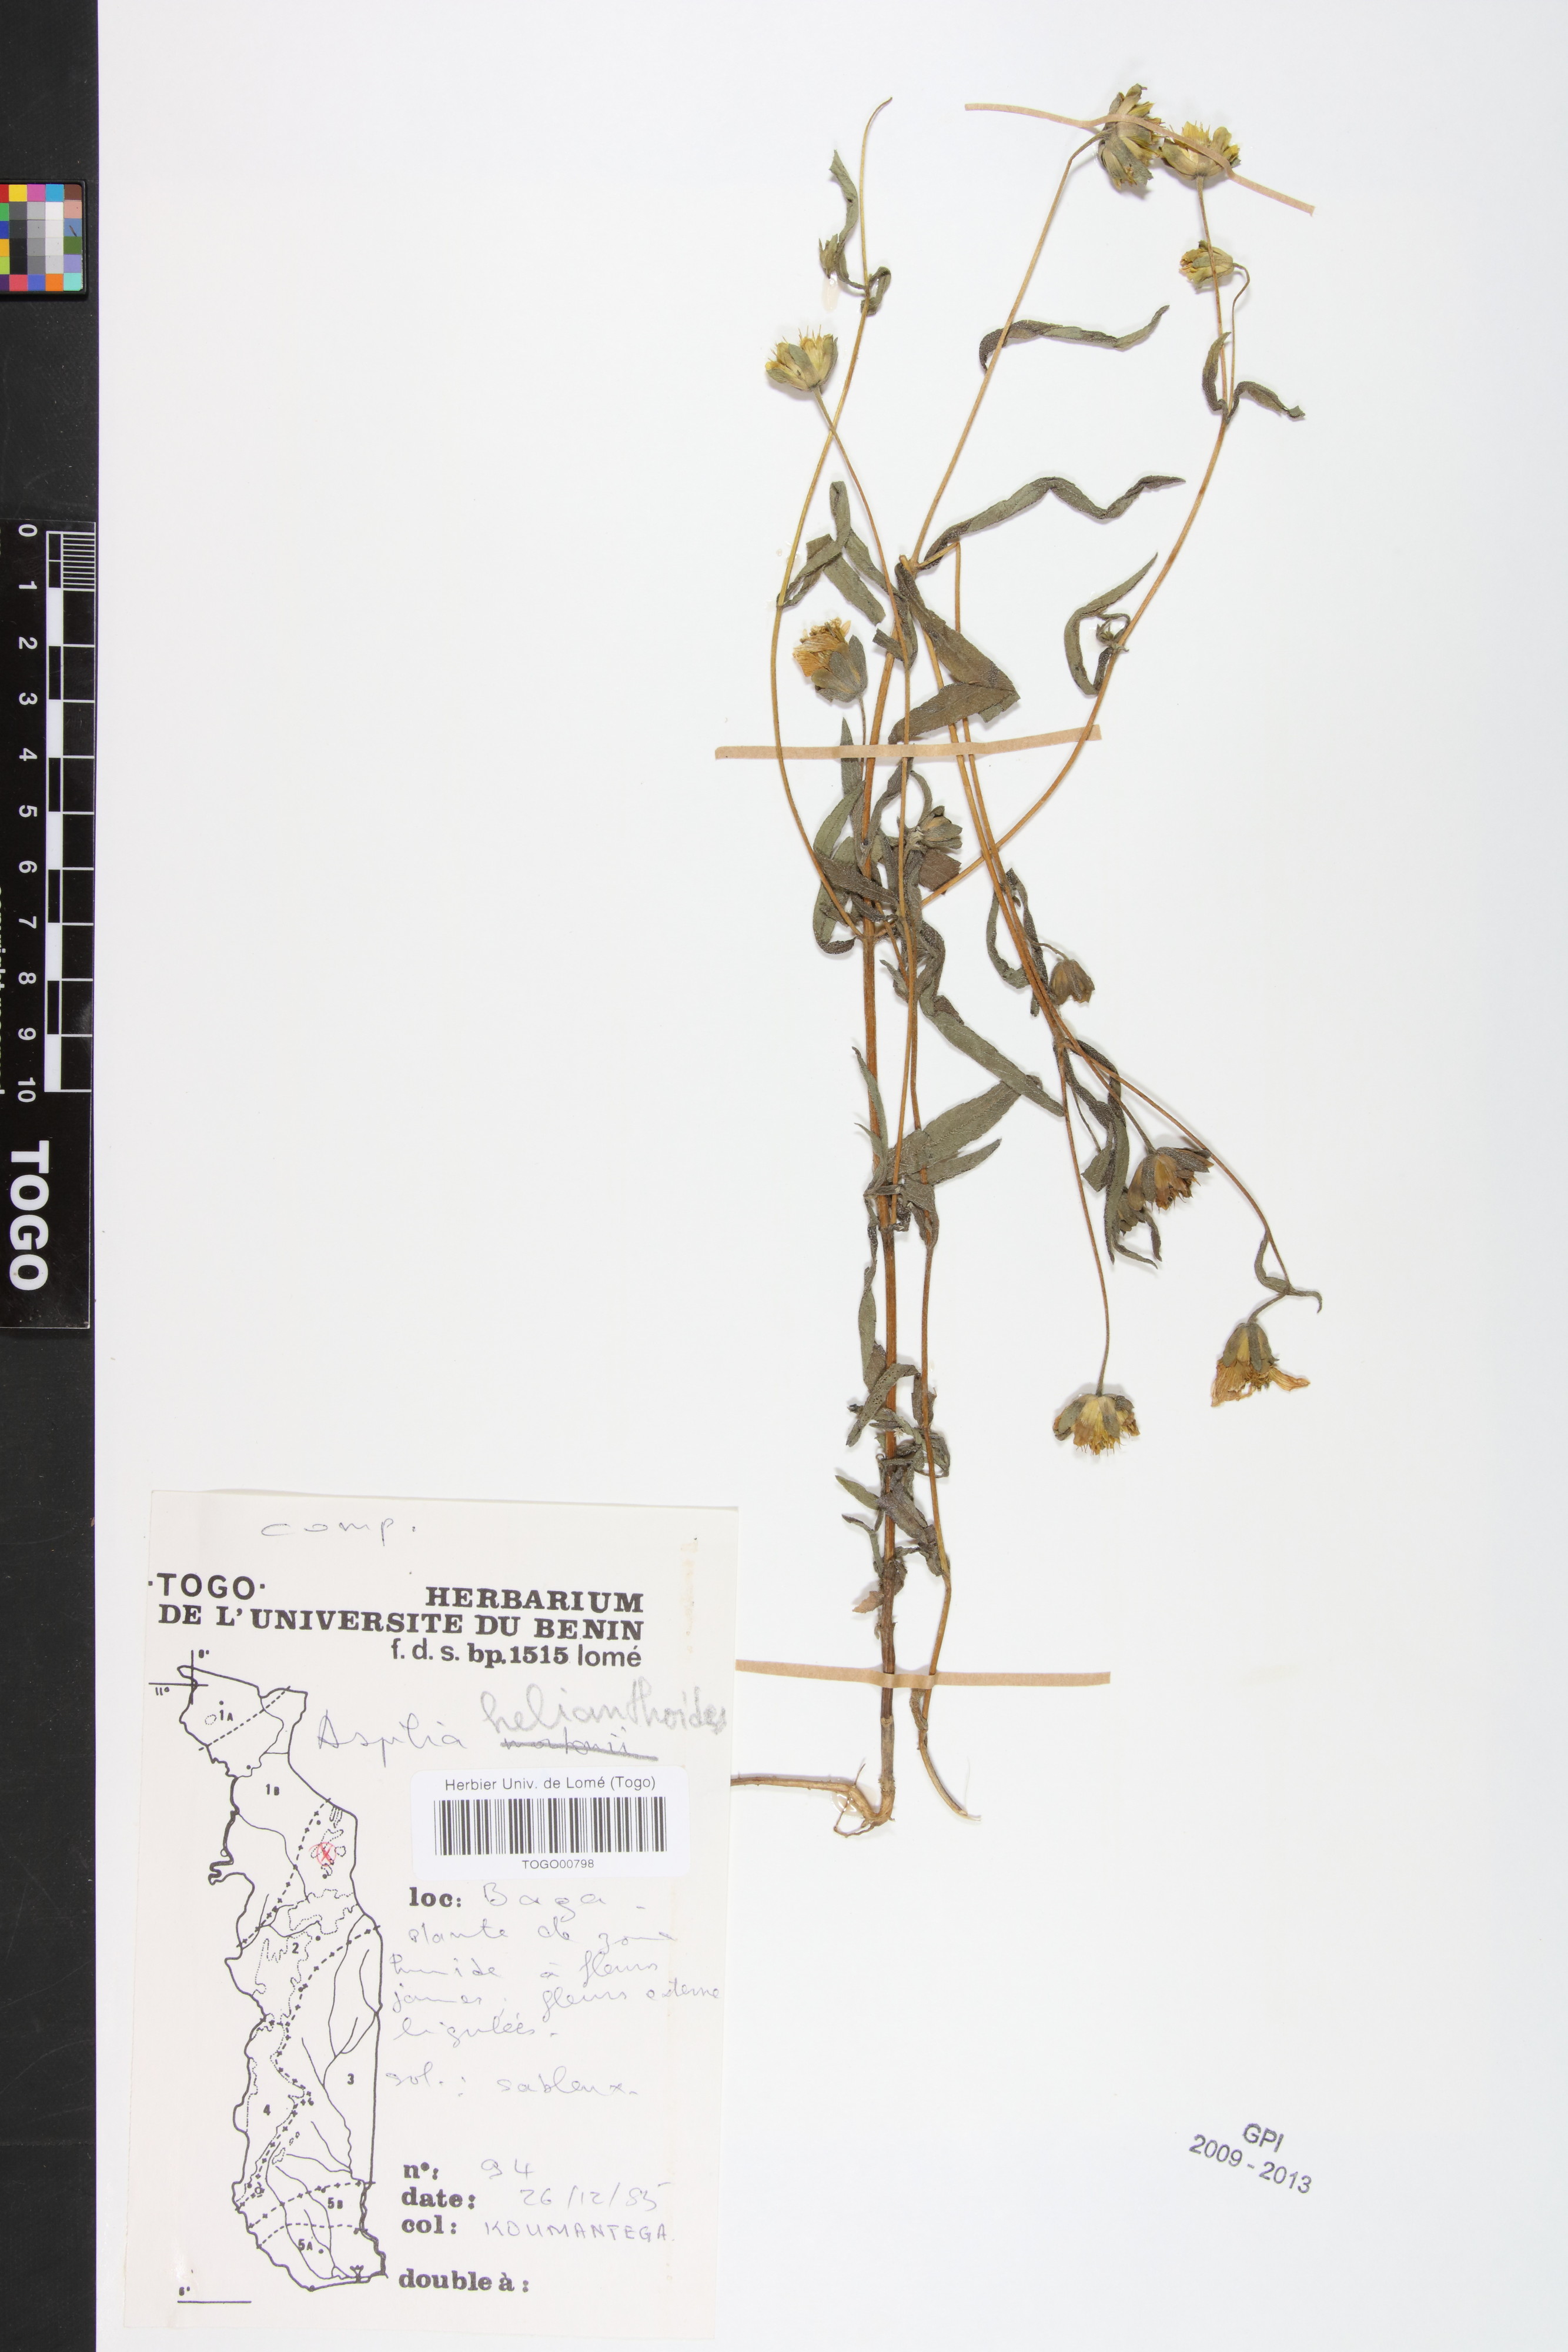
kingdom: Plantae
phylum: Tracheophyta
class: Magnoliopsida
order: Asterales
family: Asteraceae
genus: Aspilia
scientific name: Aspilia helianthoides
